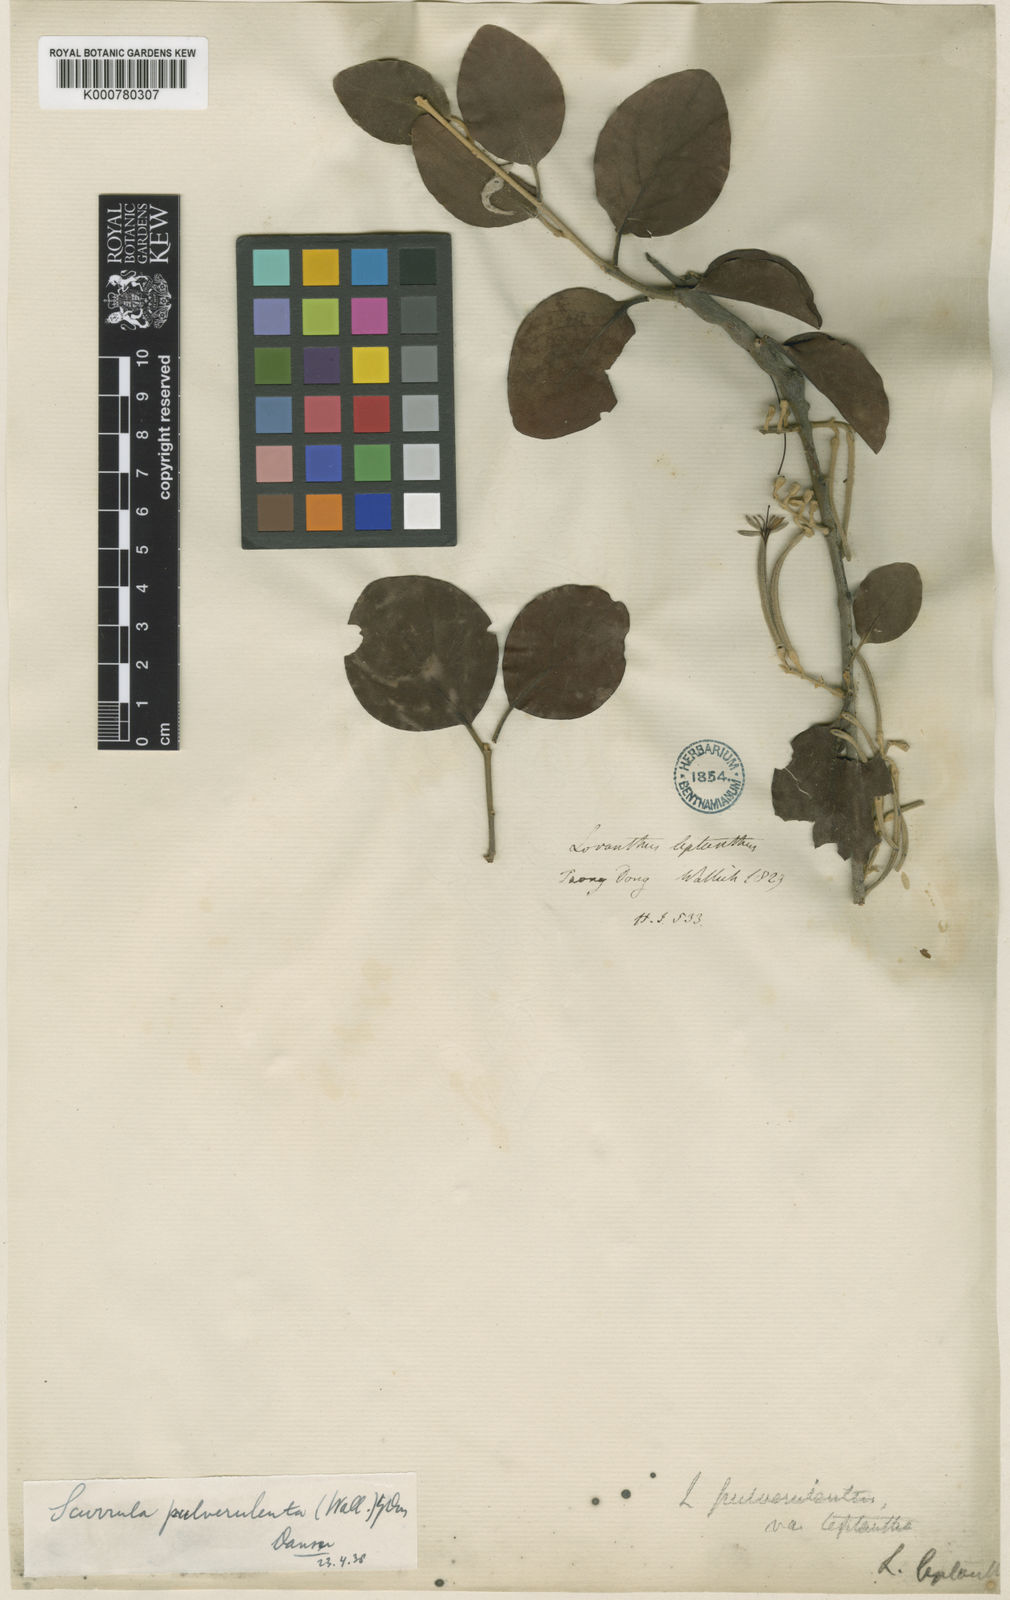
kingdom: Plantae
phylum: Tracheophyta
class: Magnoliopsida
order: Santalales
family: Loranthaceae
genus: Scurrula
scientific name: Scurrula pulverulenta
